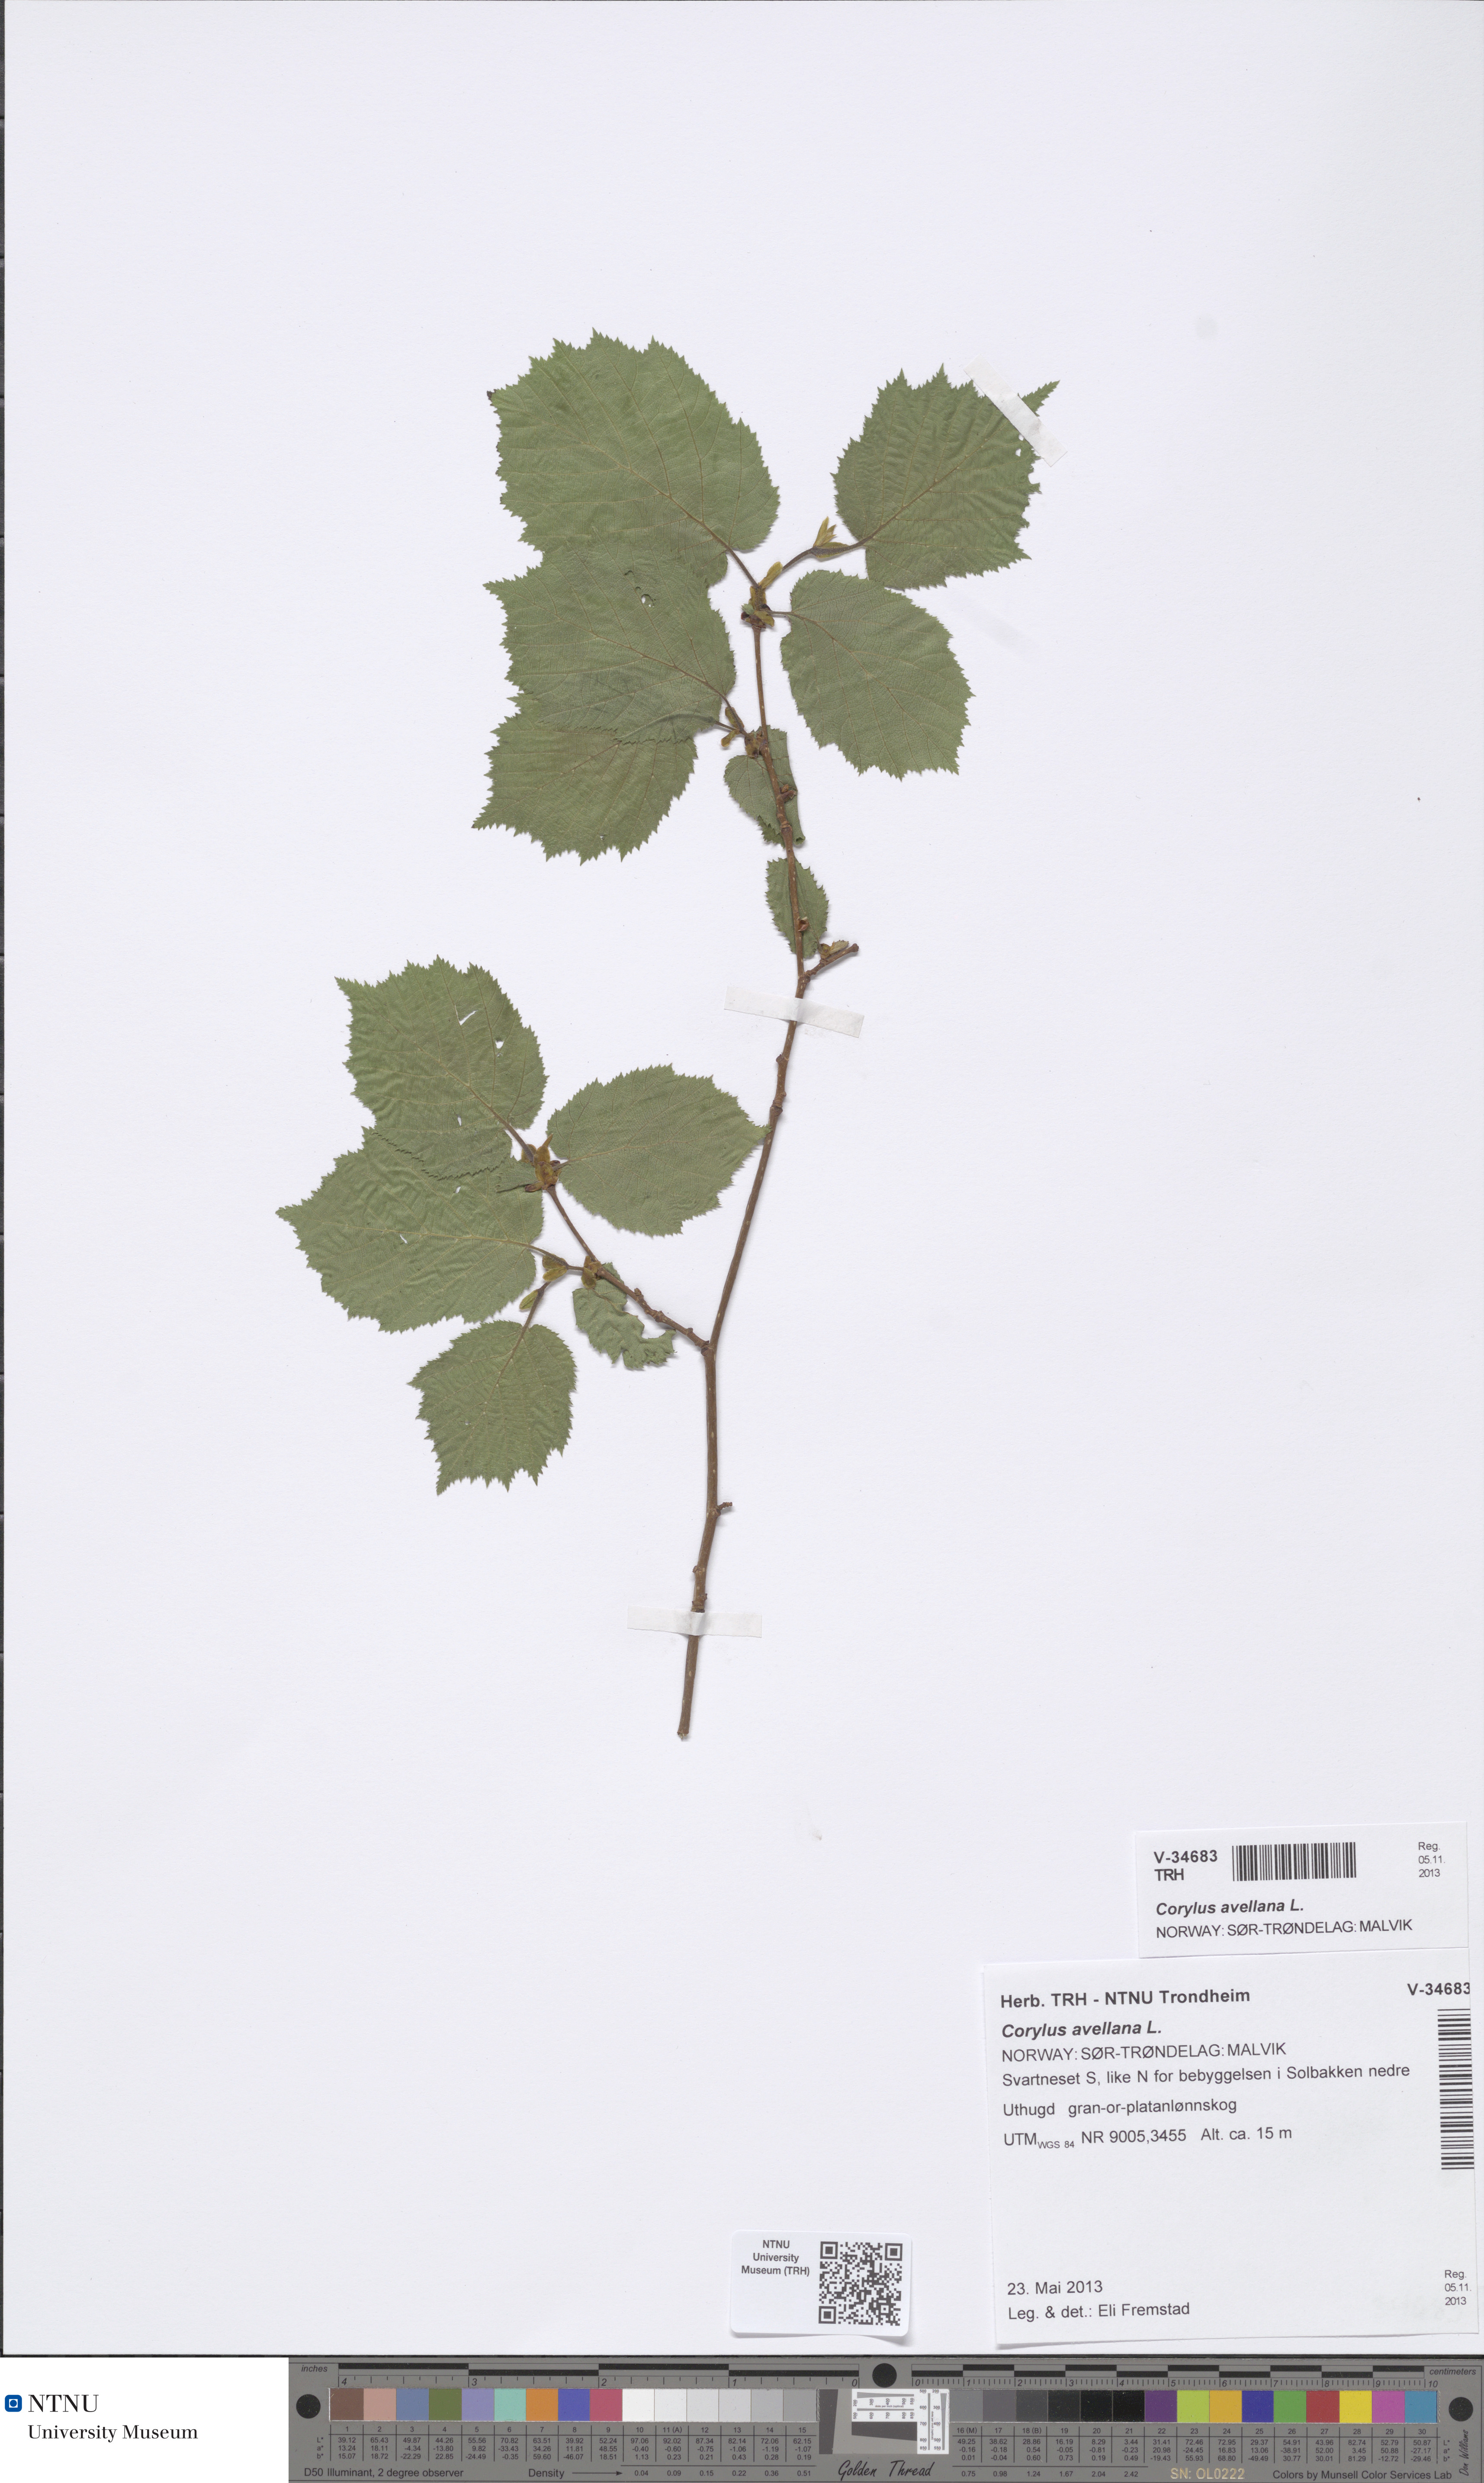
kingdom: Plantae
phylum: Tracheophyta
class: Magnoliopsida
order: Fagales
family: Betulaceae
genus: Corylus
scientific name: Corylus avellana
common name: European hazel
